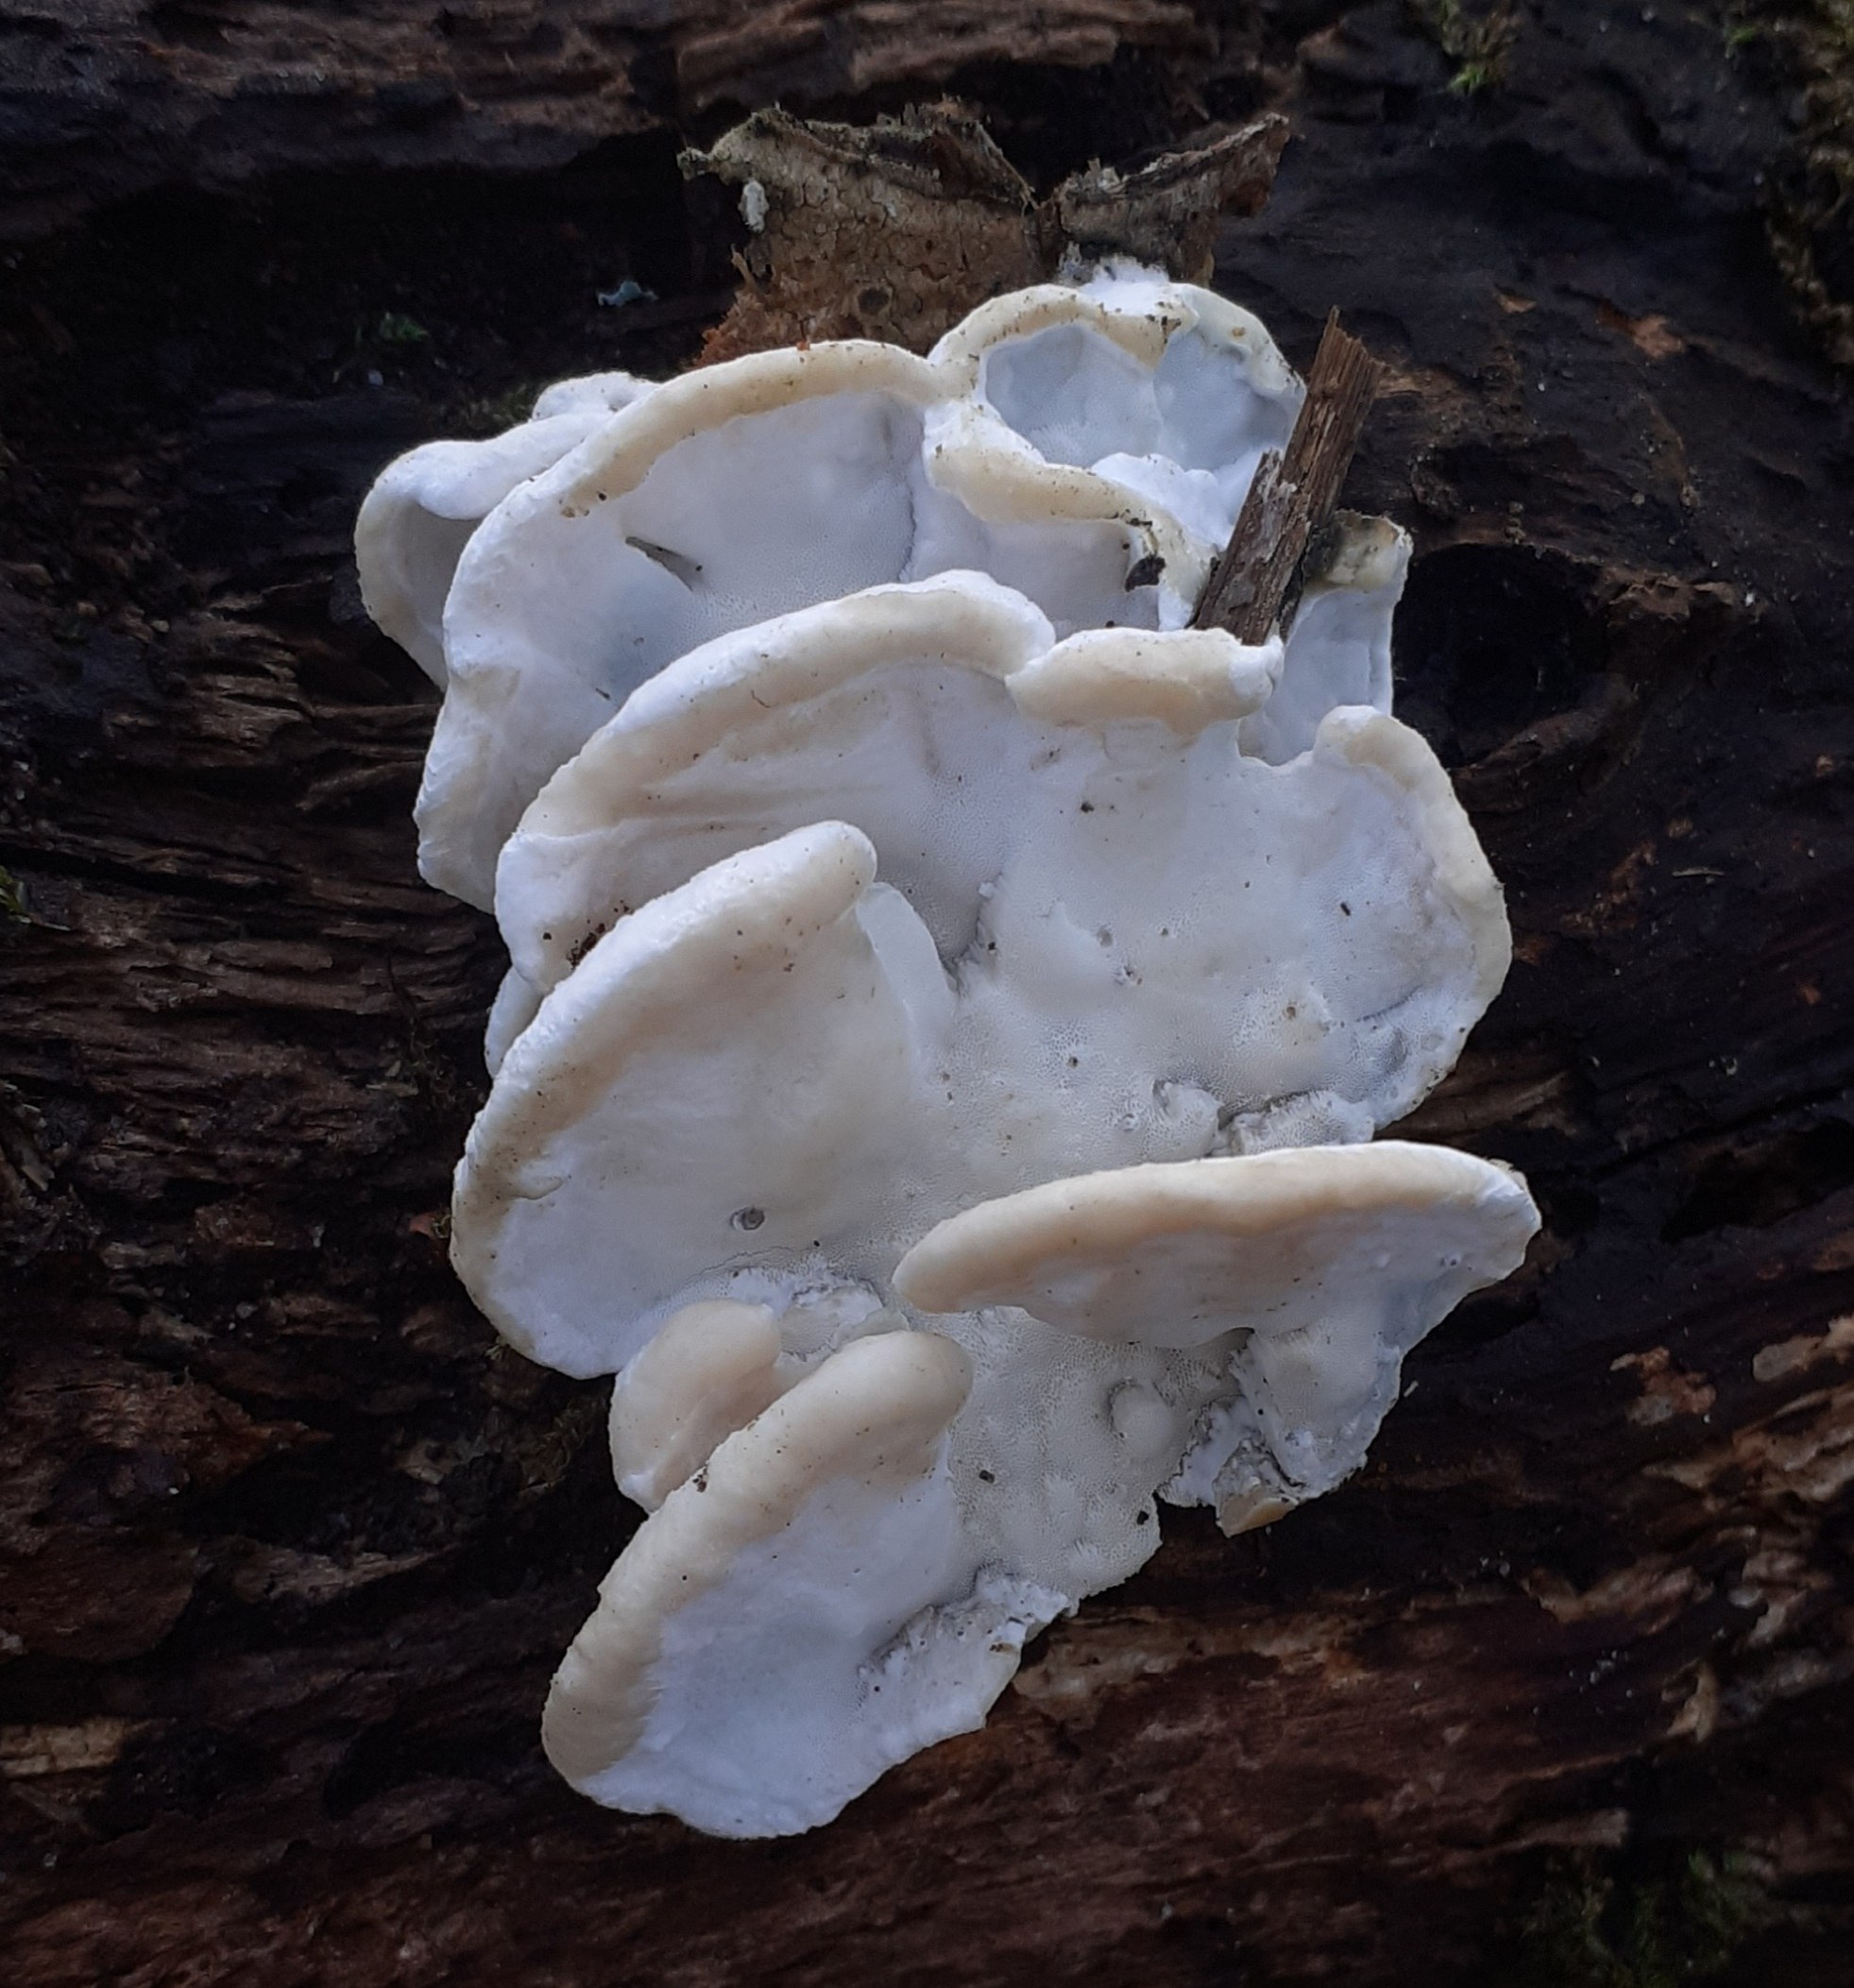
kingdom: Fungi
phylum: Basidiomycota
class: Agaricomycetes
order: Polyporales
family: Incrustoporiaceae
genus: Skeletocutis
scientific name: Skeletocutis nemoralis
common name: stor krystalporesvamp
